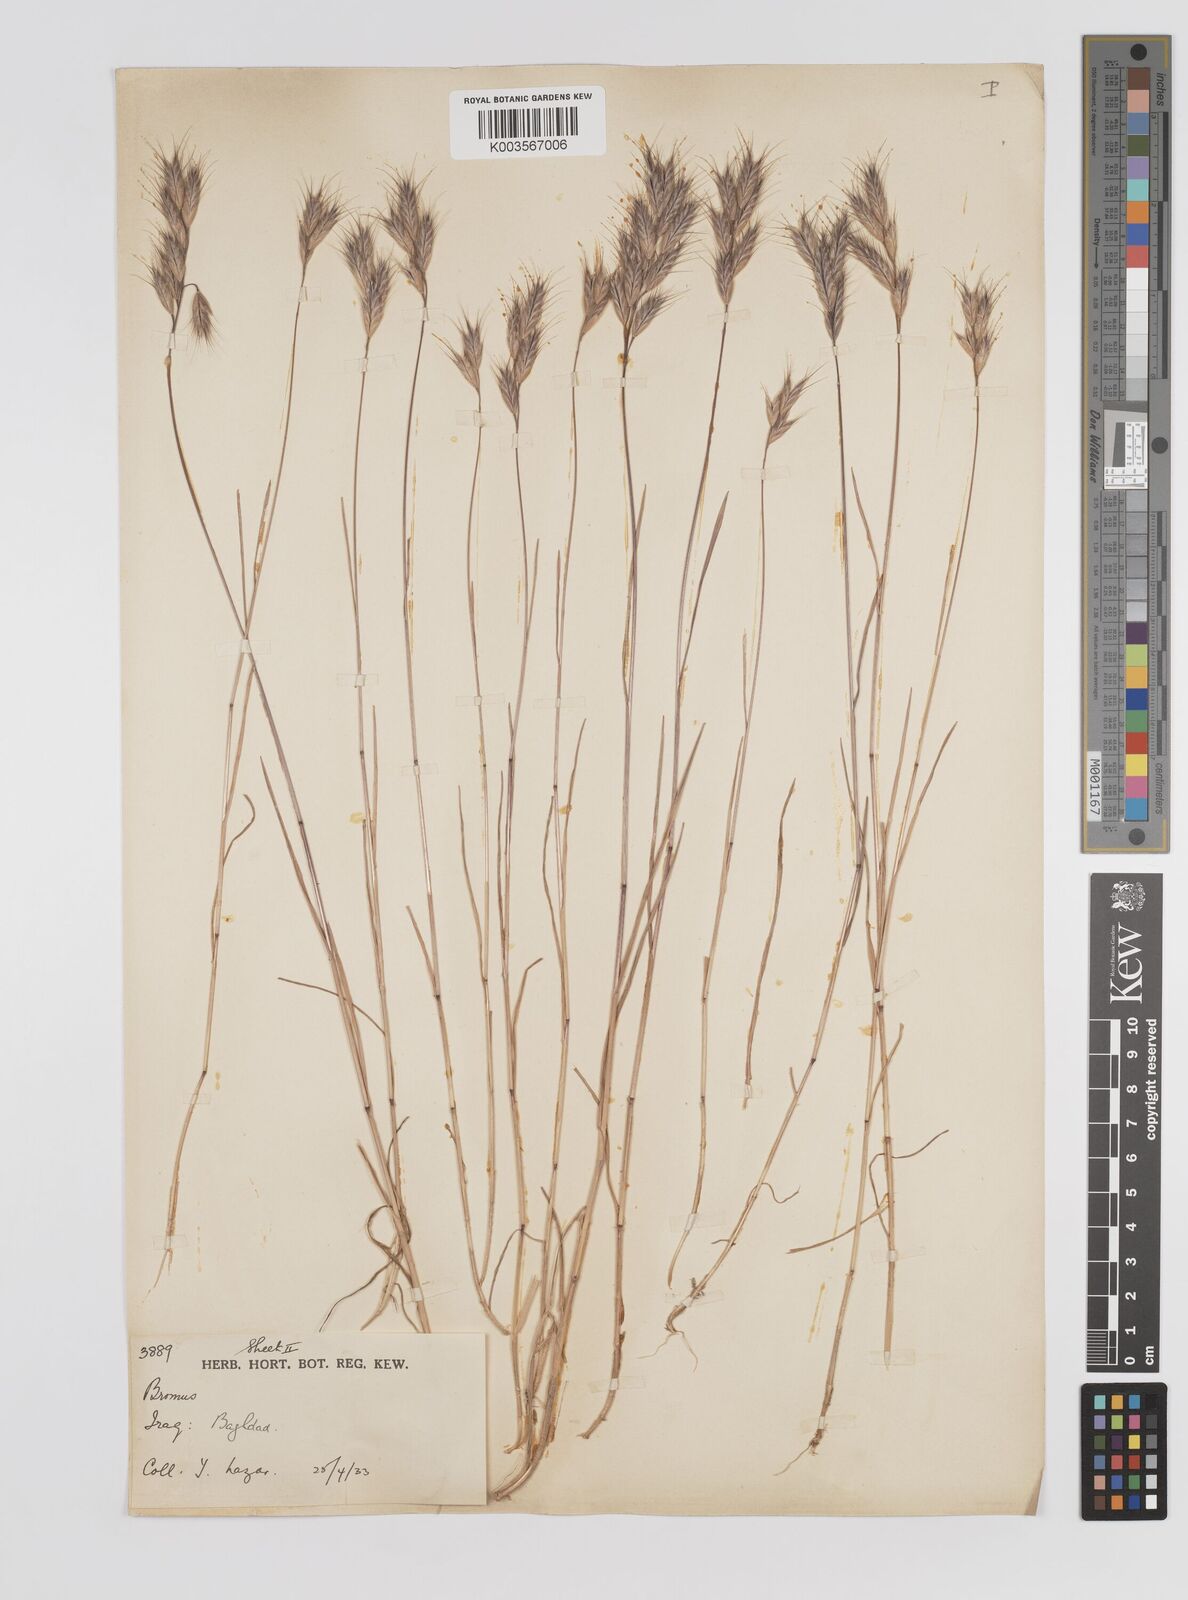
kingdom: Plantae
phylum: Tracheophyta
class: Liliopsida
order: Poales
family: Poaceae
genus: Bromus
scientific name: Bromus danthoniae
